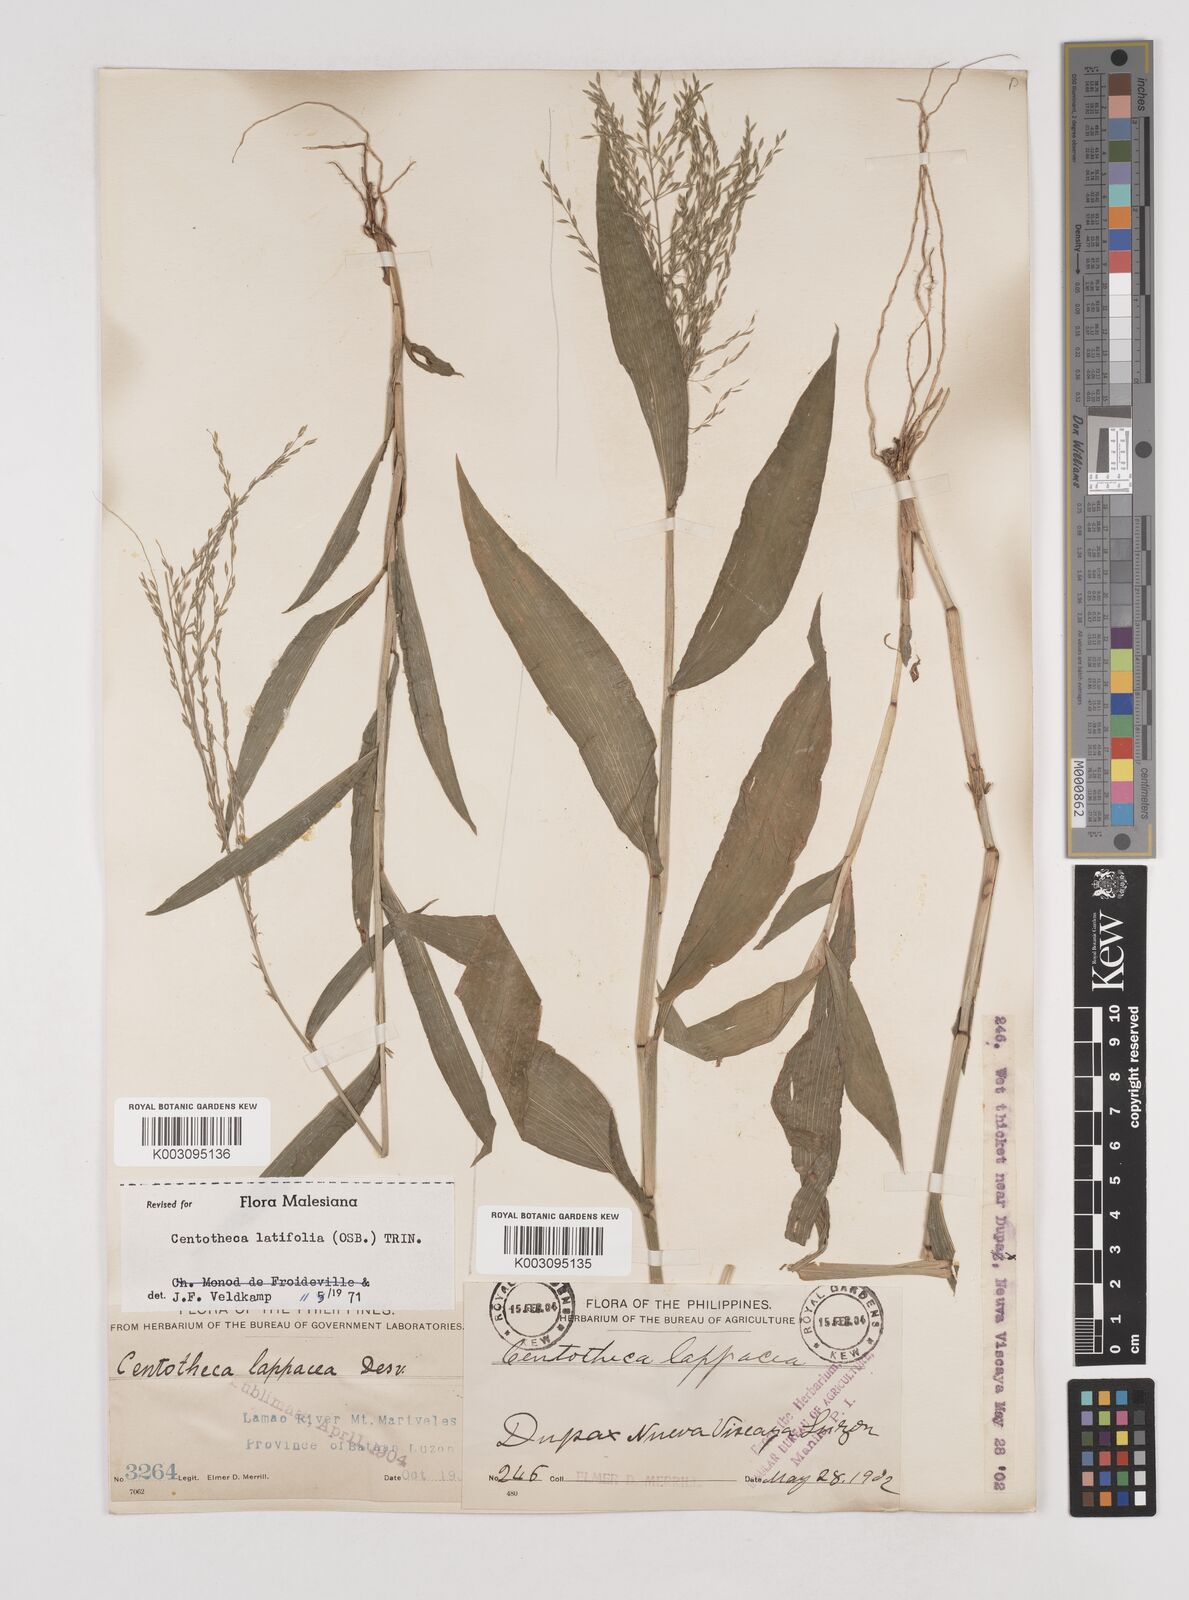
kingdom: Plantae
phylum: Tracheophyta
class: Liliopsida
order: Poales
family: Poaceae
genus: Centotheca
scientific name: Centotheca lappacea
